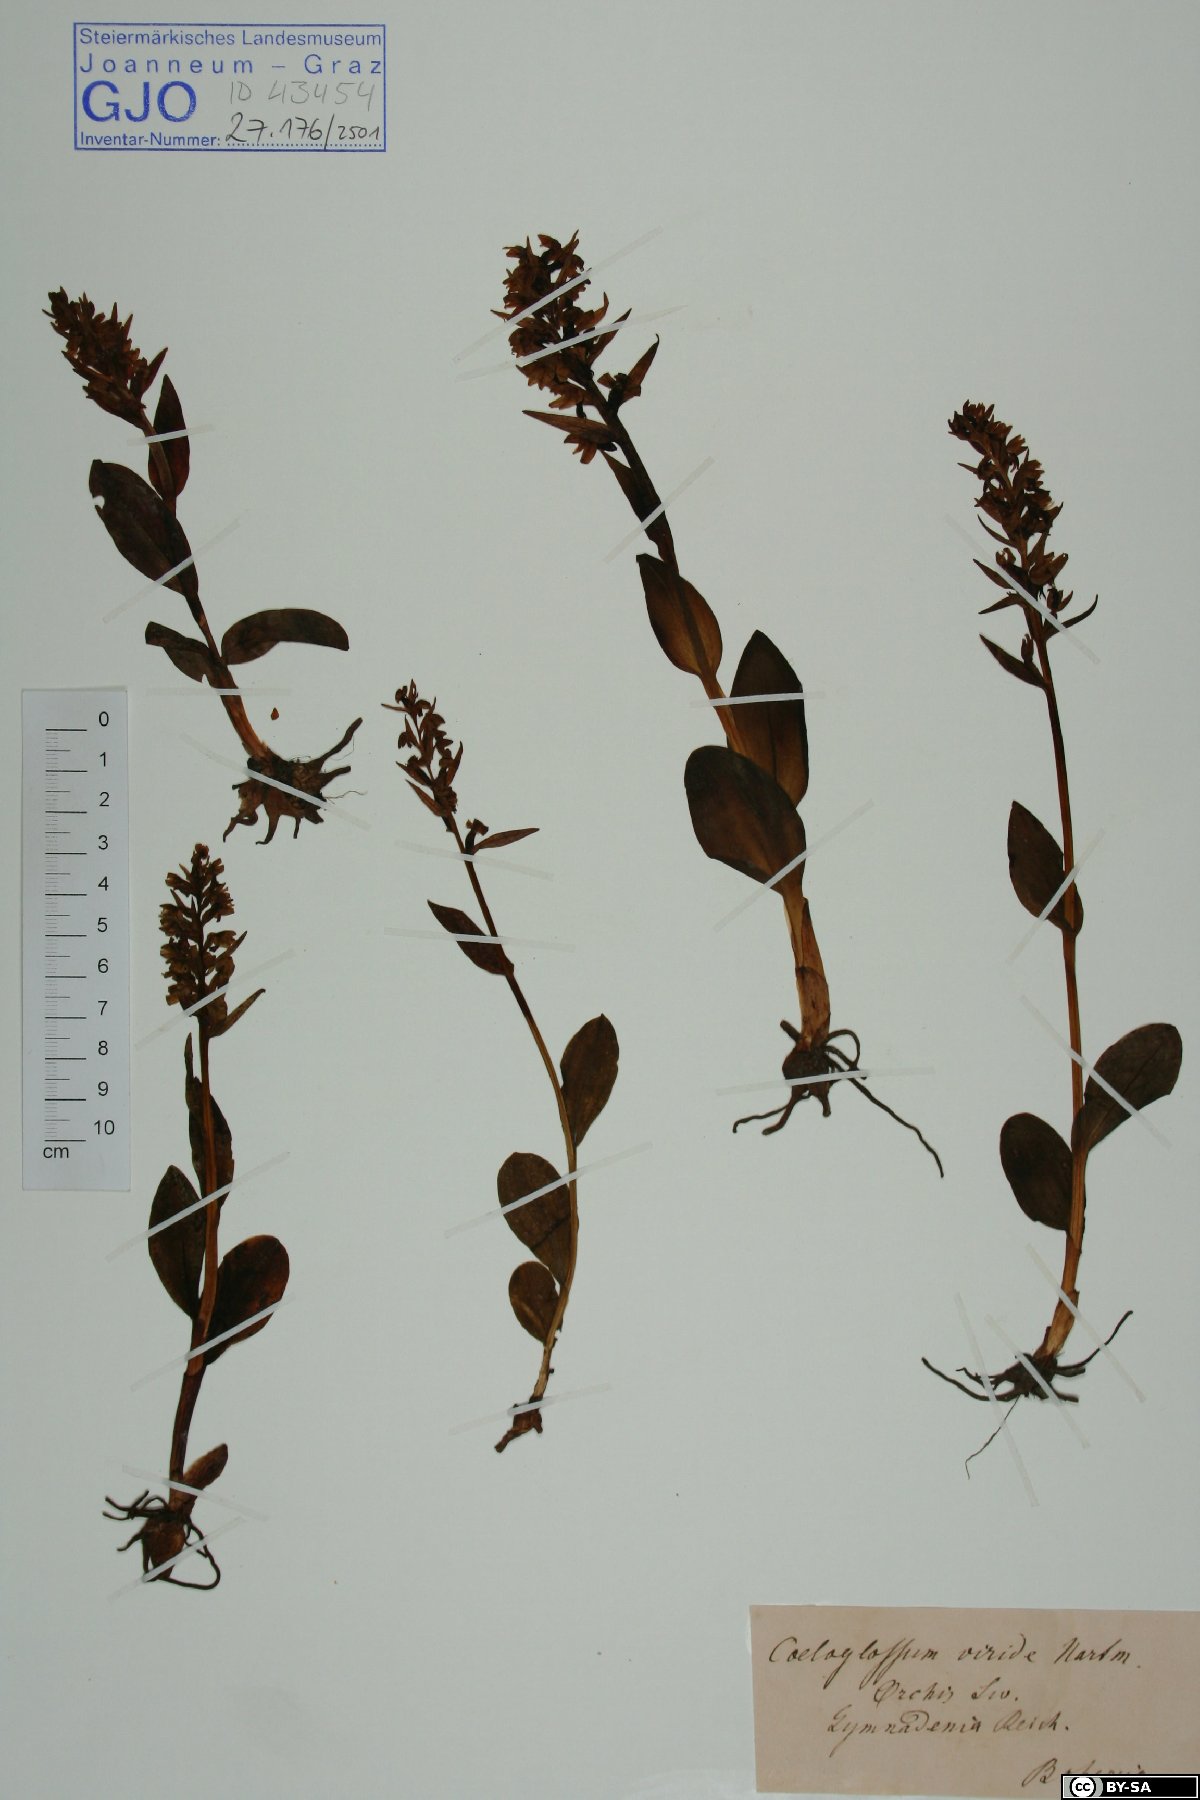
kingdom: Plantae
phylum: Tracheophyta
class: Liliopsida
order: Asparagales
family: Orchidaceae
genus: Dactylorhiza
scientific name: Dactylorhiza viridis
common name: Longbract frog orchid
